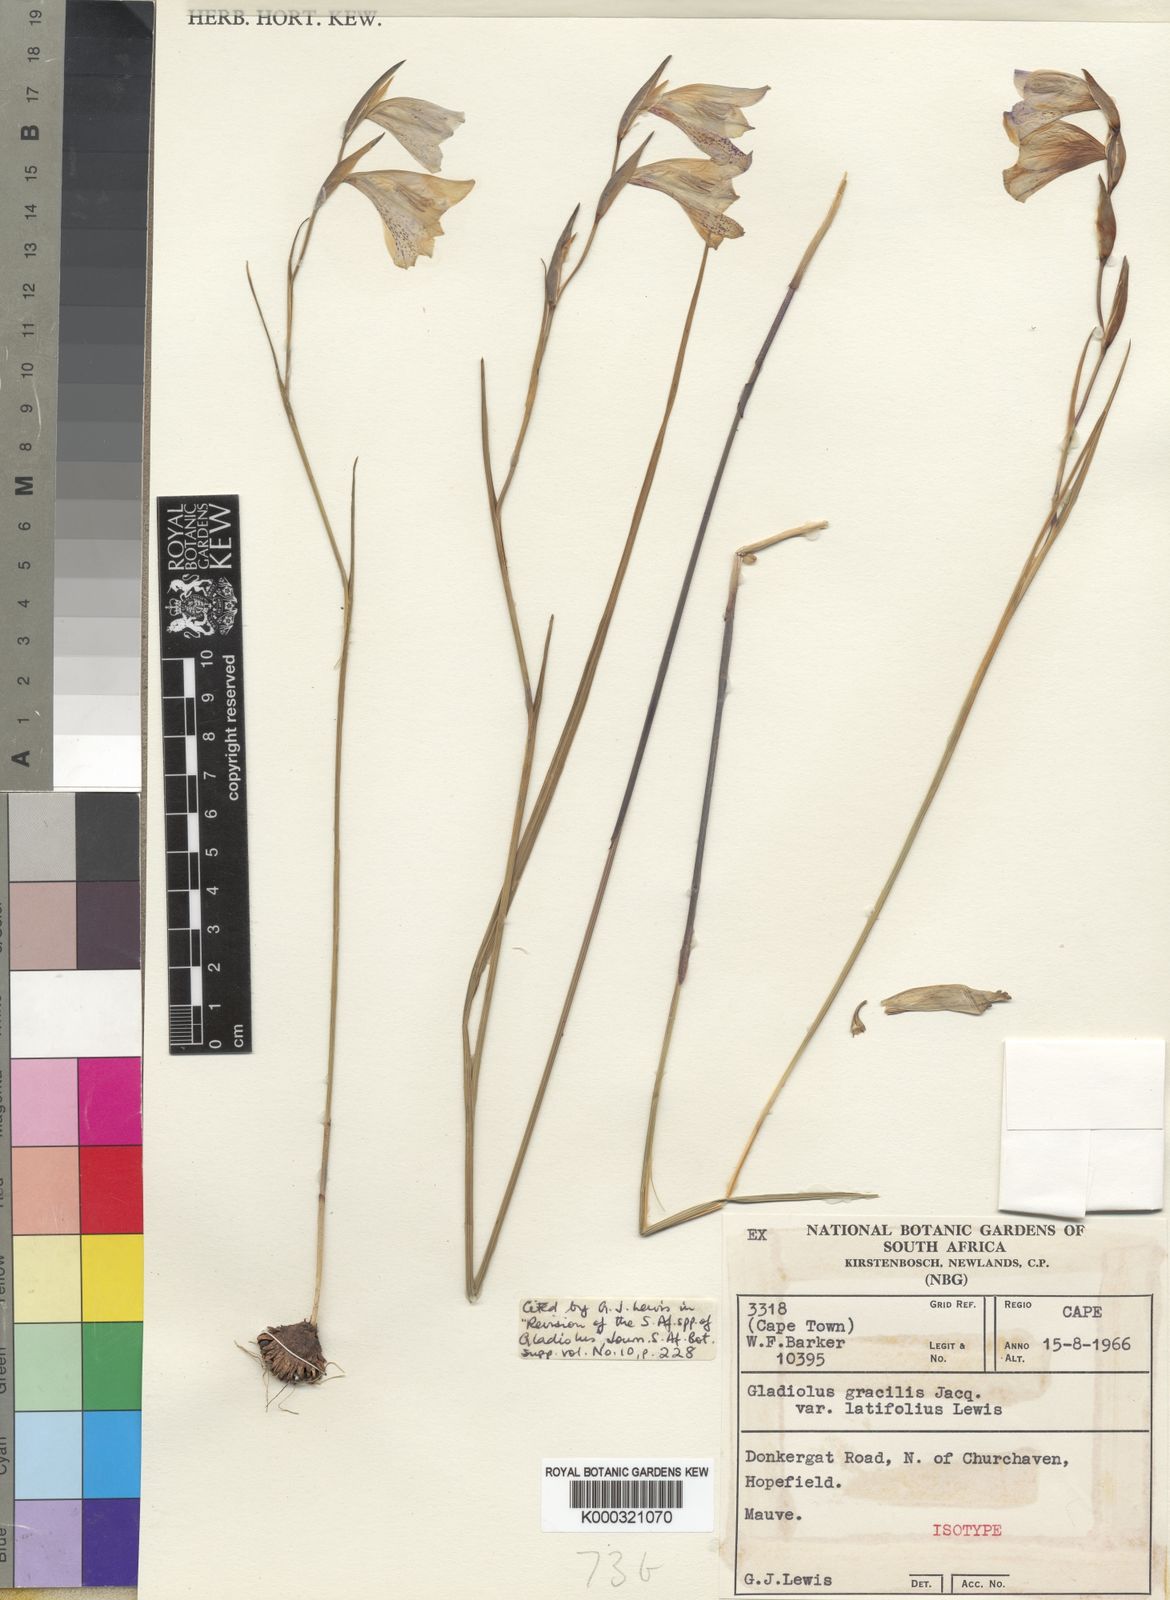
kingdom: Plantae
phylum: Tracheophyta
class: Liliopsida
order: Asparagales
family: Iridaceae
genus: Gladiolus
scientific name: Gladiolus caeruleus
